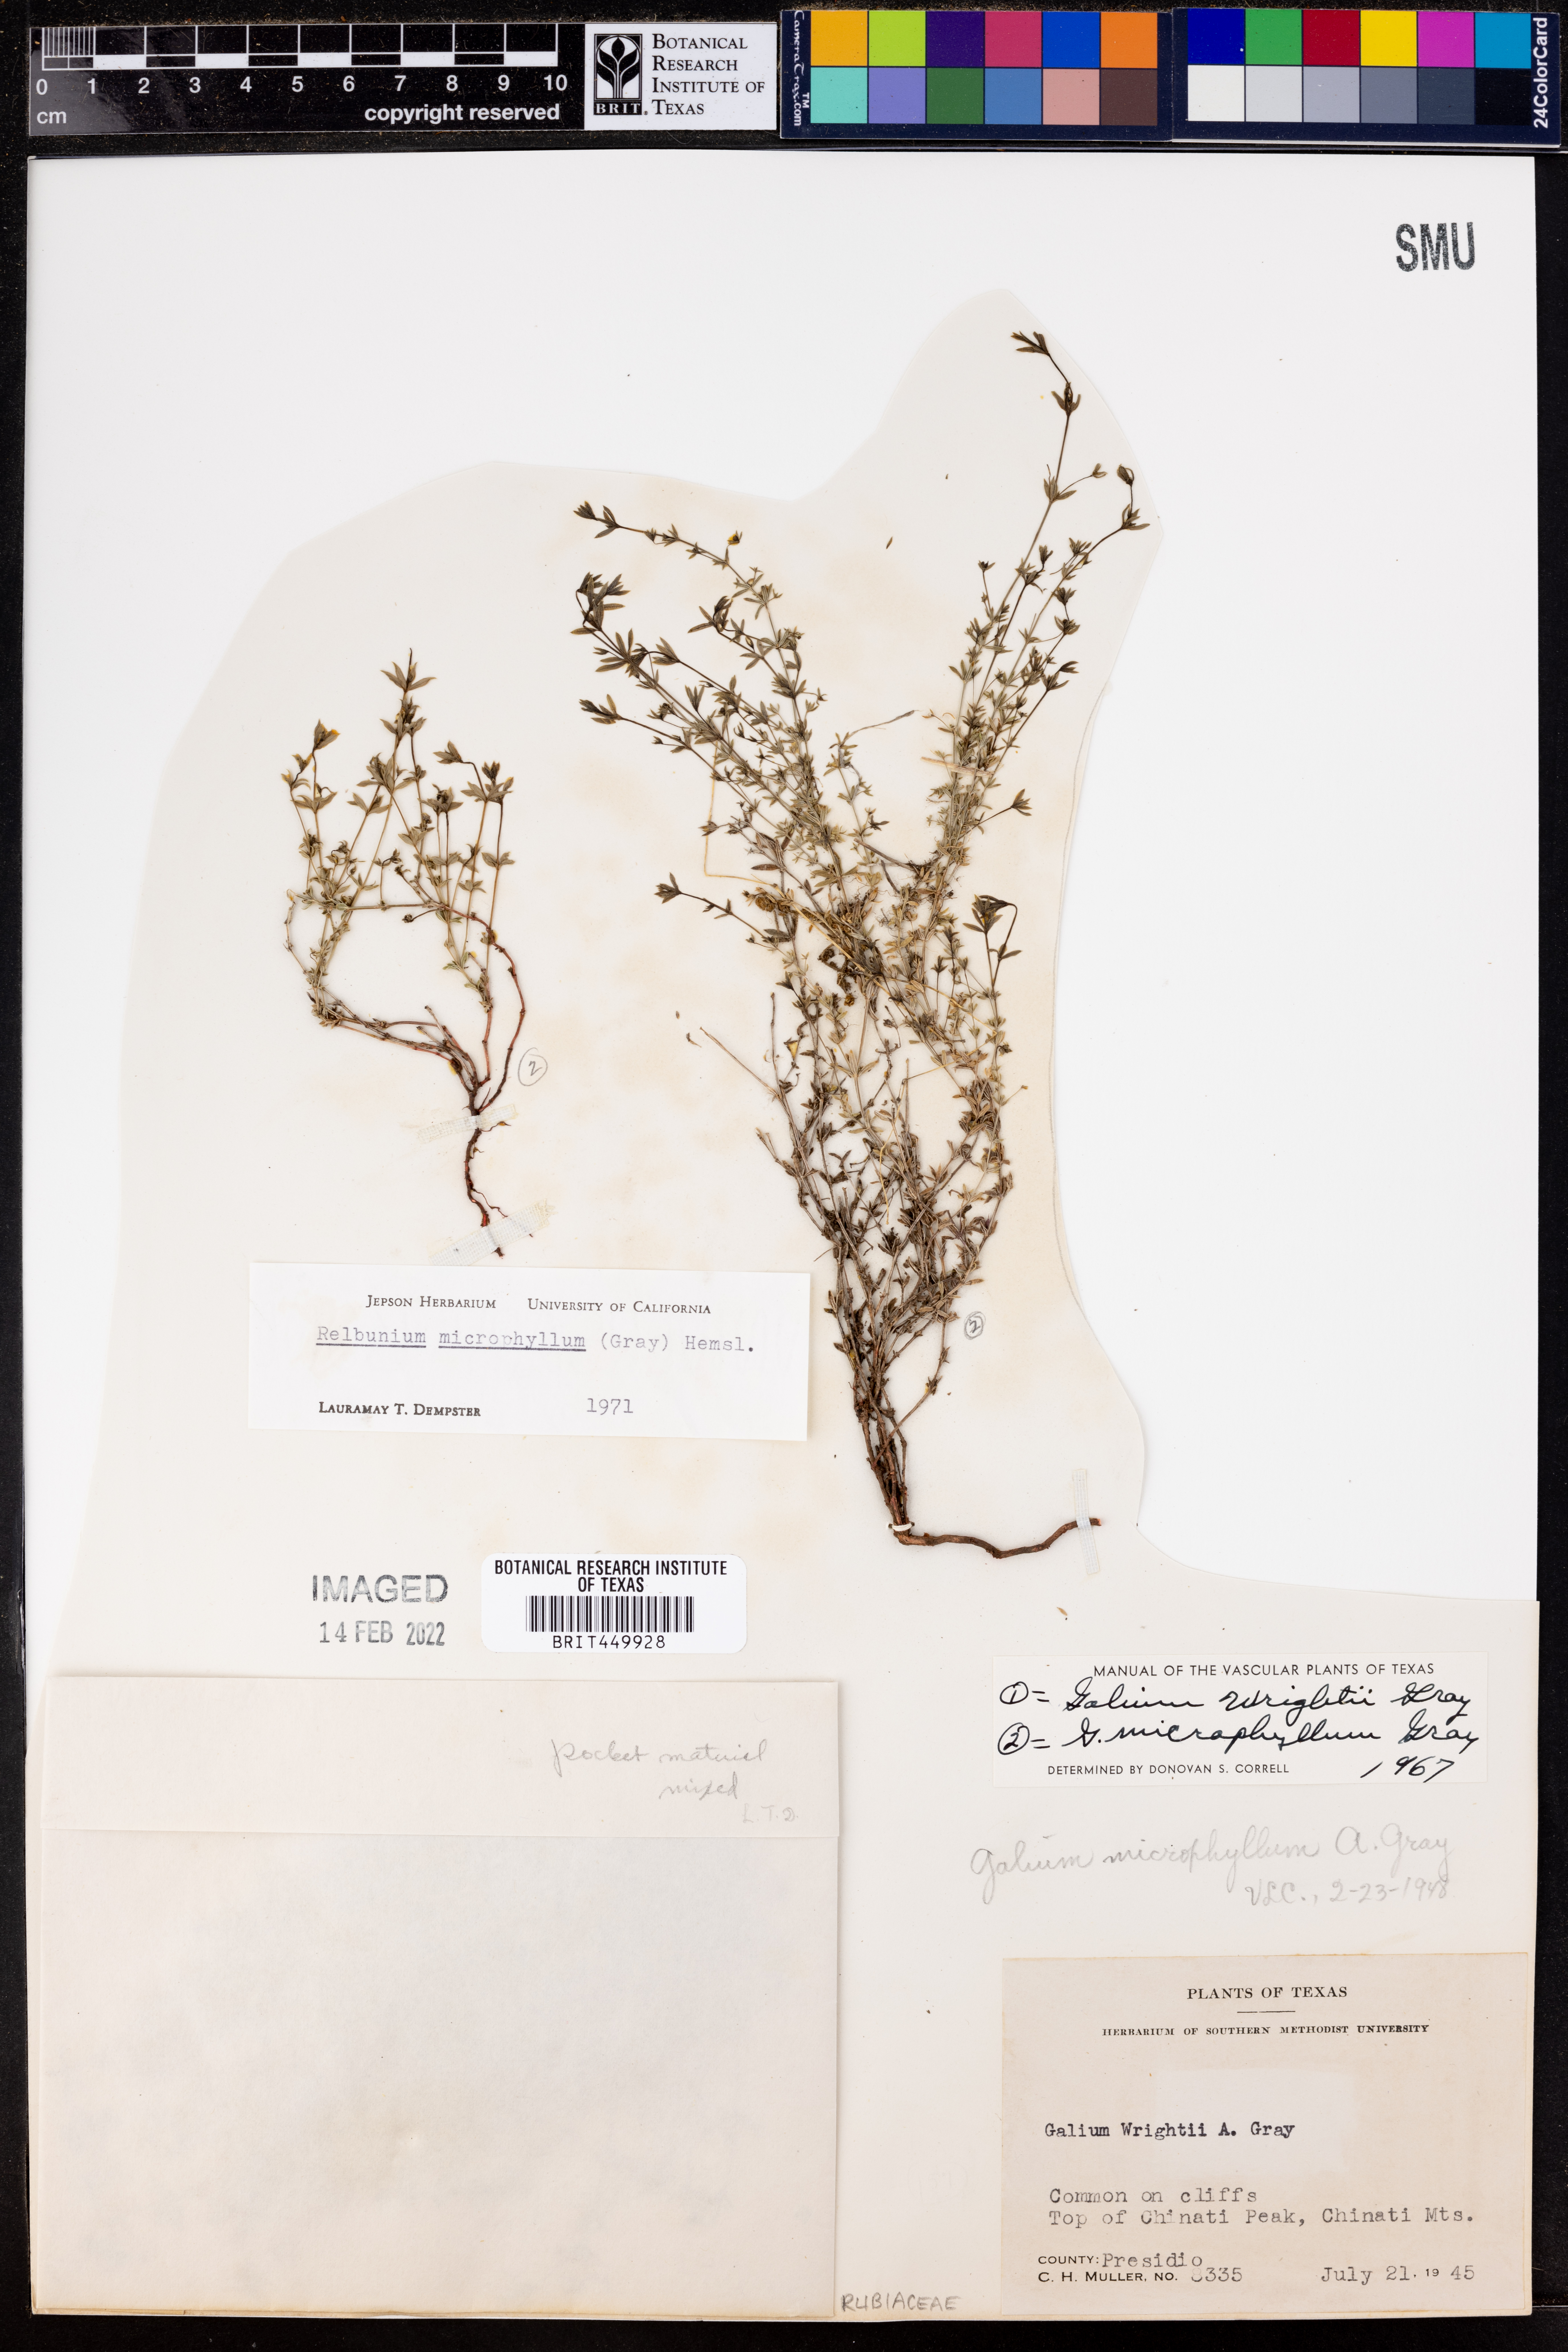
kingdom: Plantae
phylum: Tracheophyta
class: Magnoliopsida
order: Gentianales
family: Rubiaceae
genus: Galium
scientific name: Galium microphyllum
